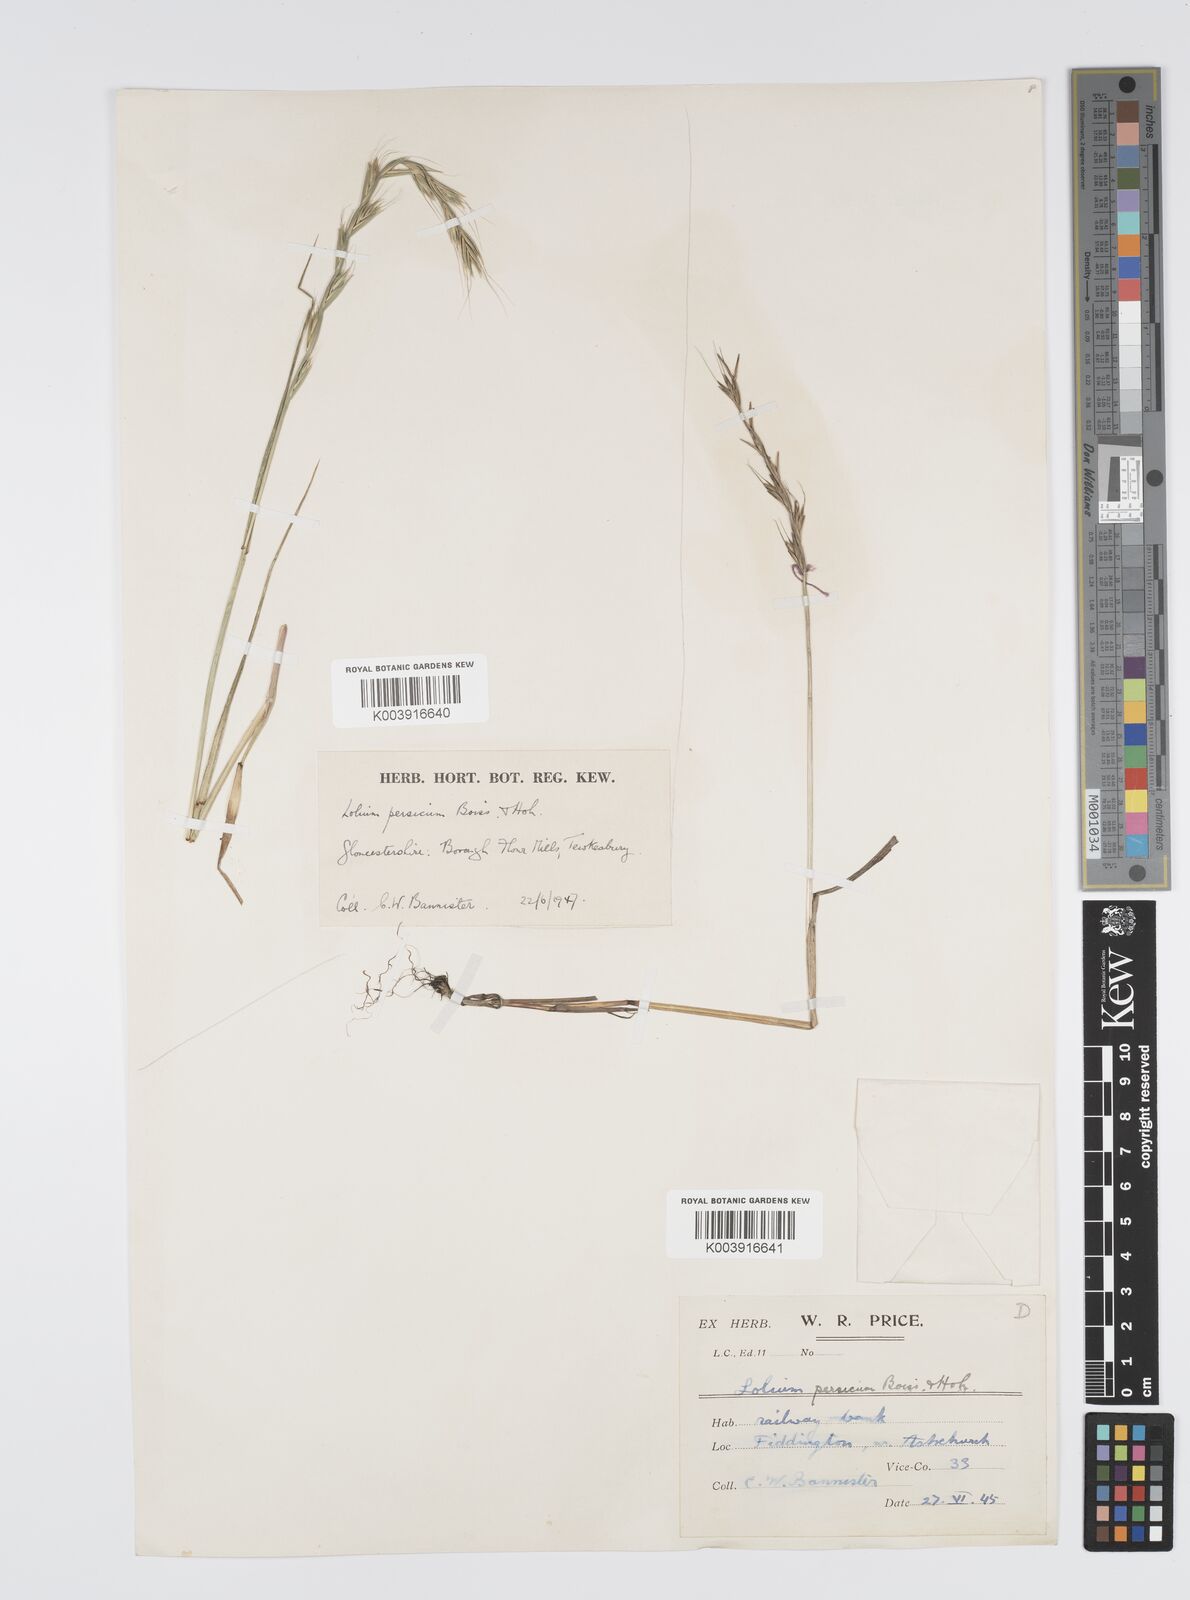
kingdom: Plantae
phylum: Tracheophyta
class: Liliopsida
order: Poales
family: Poaceae
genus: Lolium
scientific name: Lolium persicum
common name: Persian ryegrass
